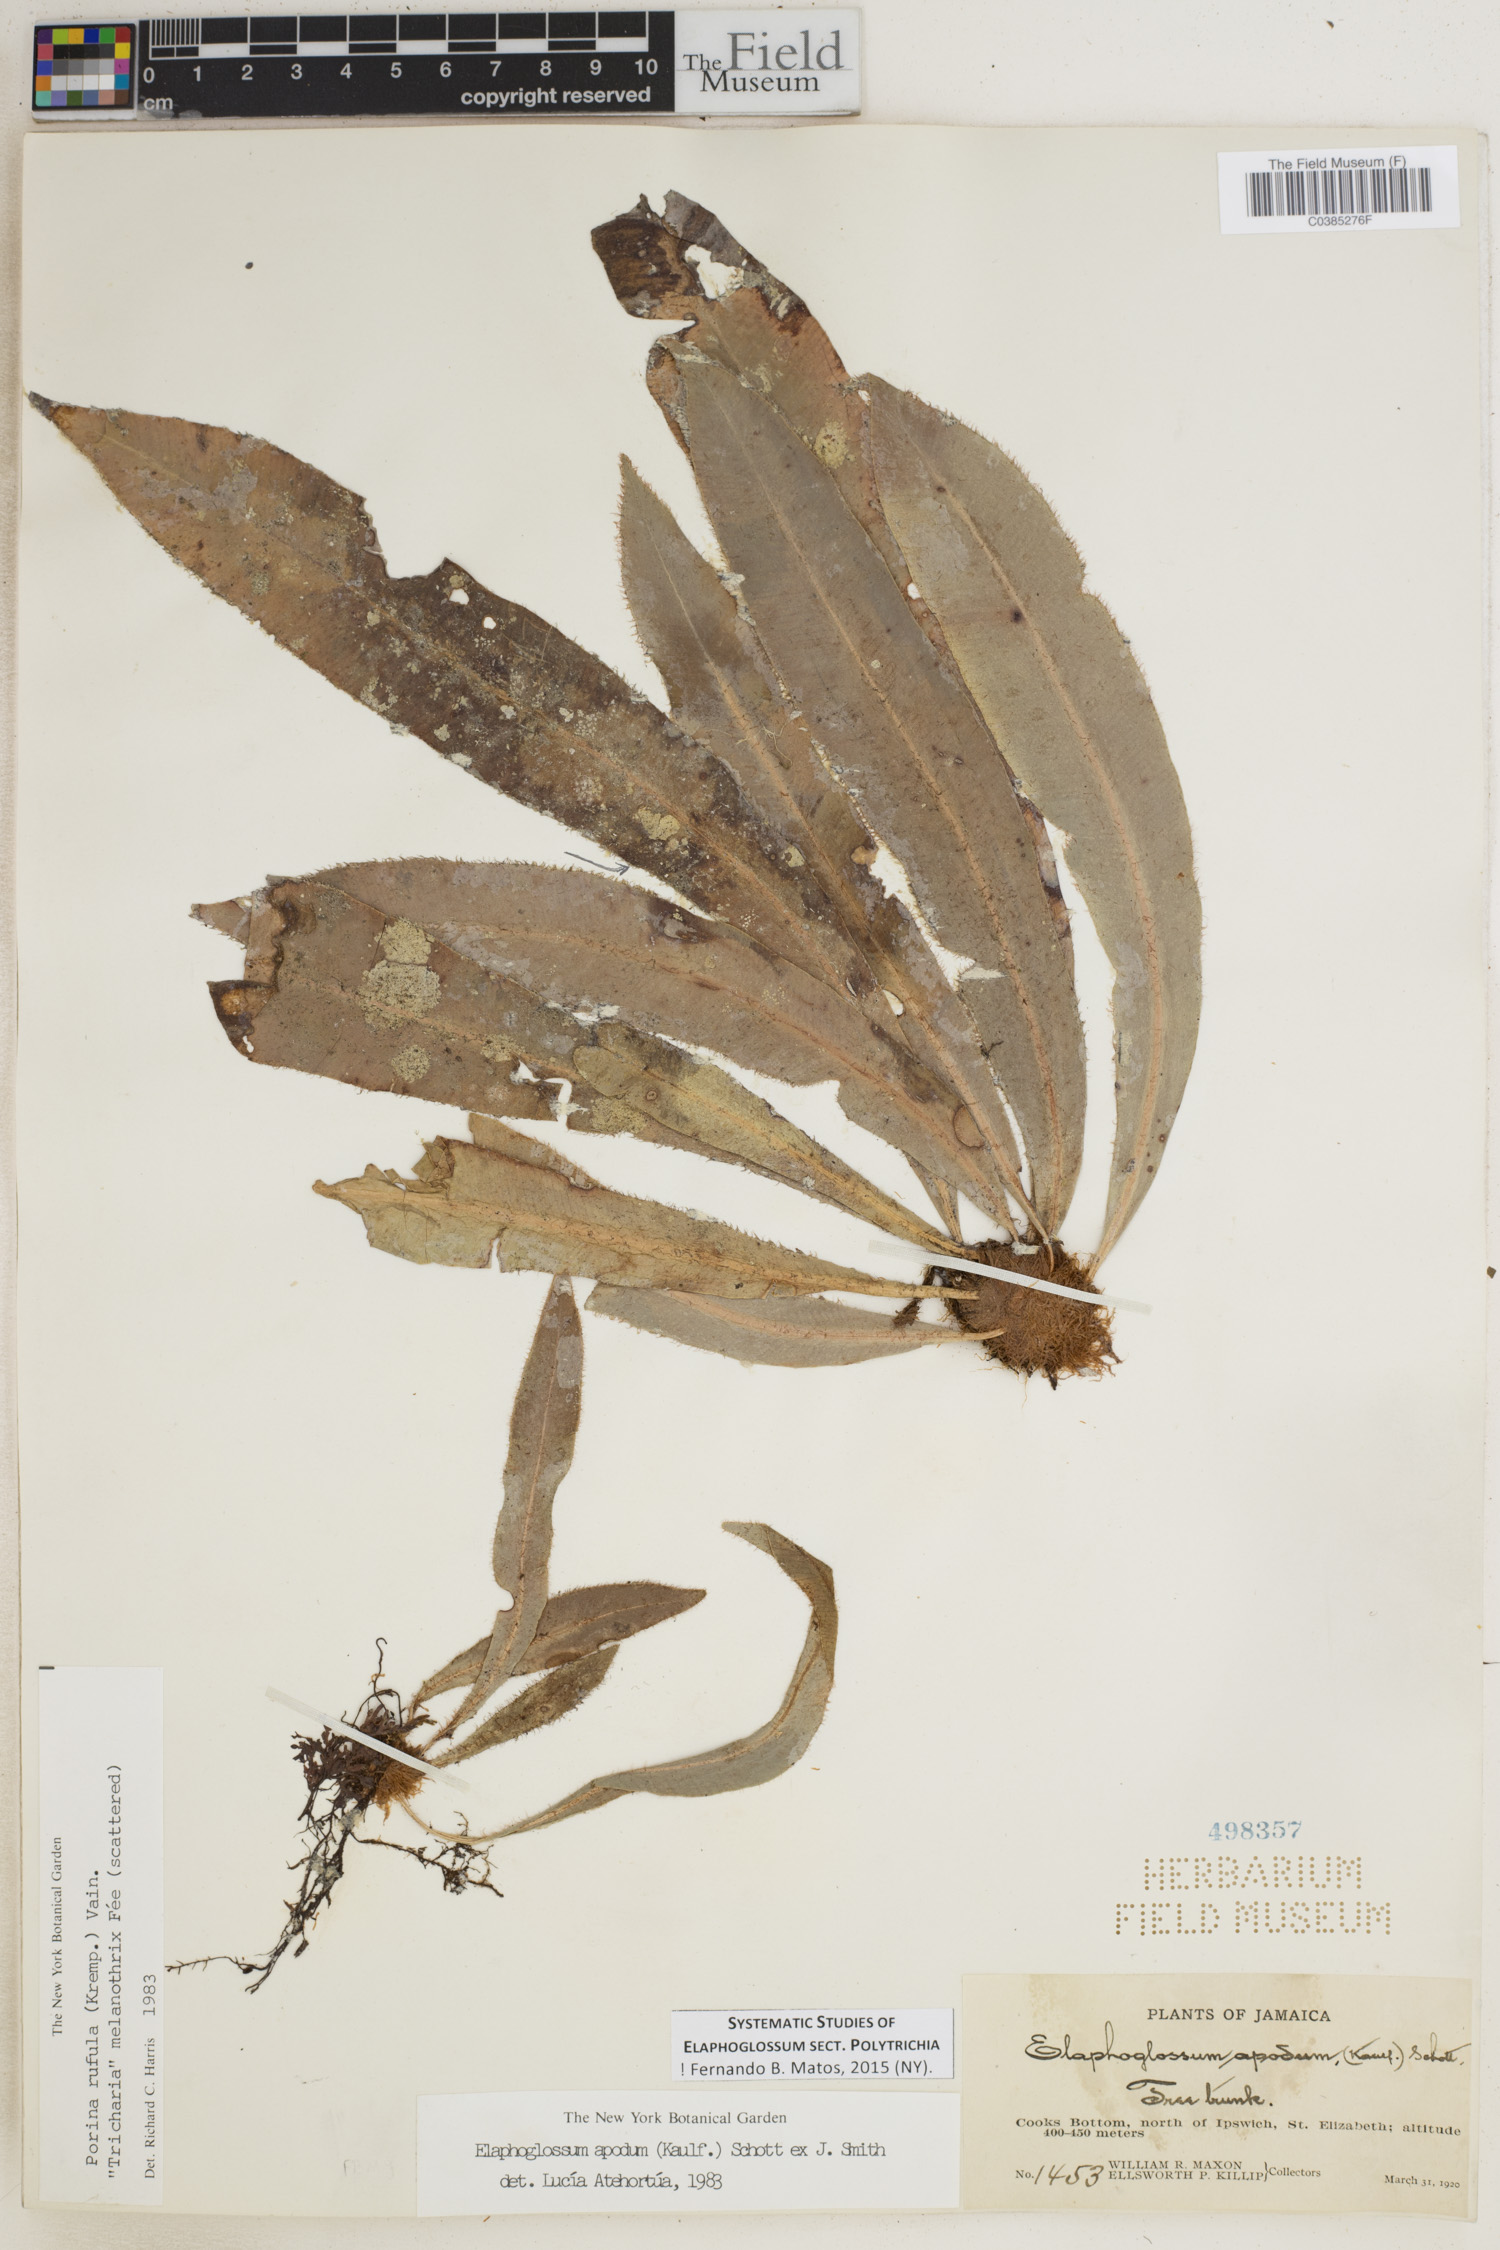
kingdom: Plantae
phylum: Tracheophyta
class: Polypodiopsida
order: Polypodiales
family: Dryopteridaceae
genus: Elaphoglossum
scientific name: Elaphoglossum polytrichum
